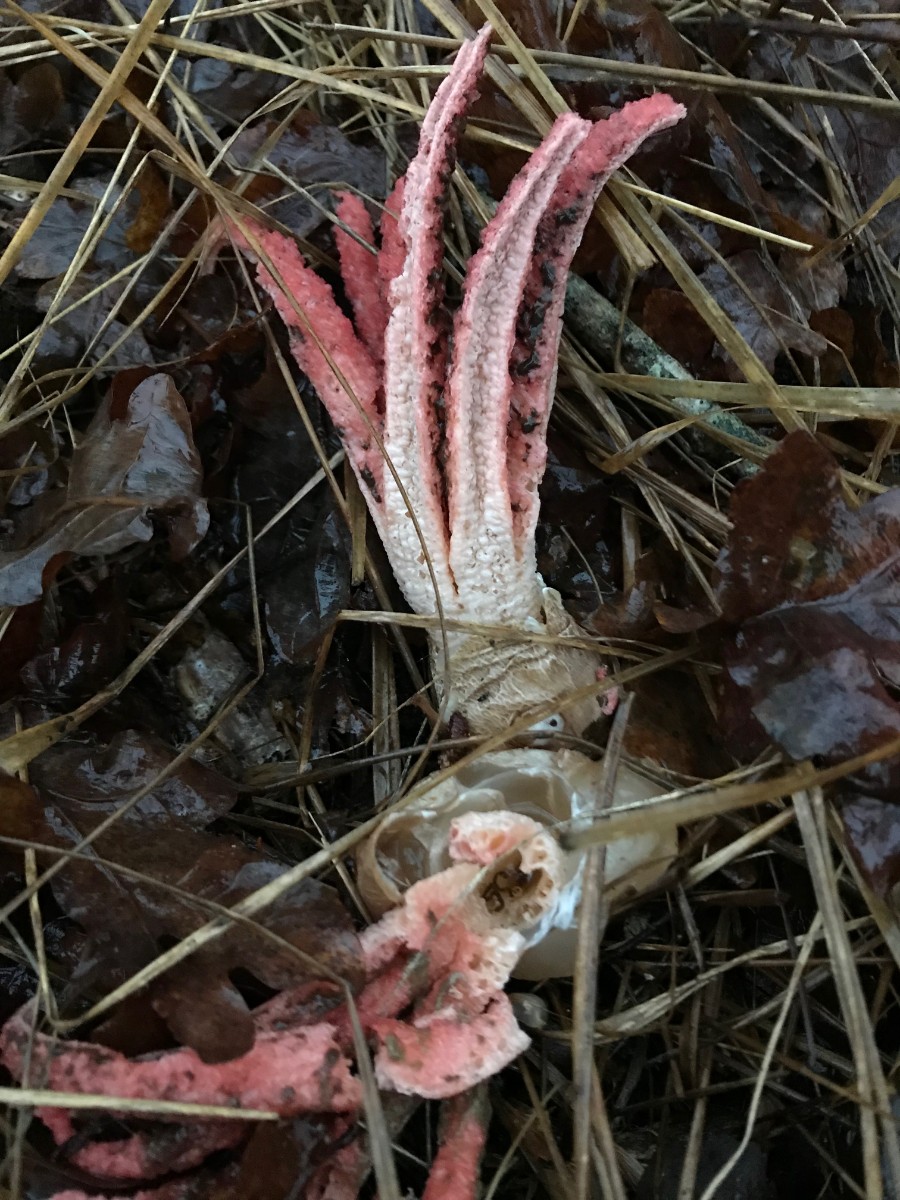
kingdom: Fungi
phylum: Basidiomycota
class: Agaricomycetes
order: Phallales
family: Phallaceae
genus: Clathrus
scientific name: Clathrus archeri
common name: blækspruttesvamp
